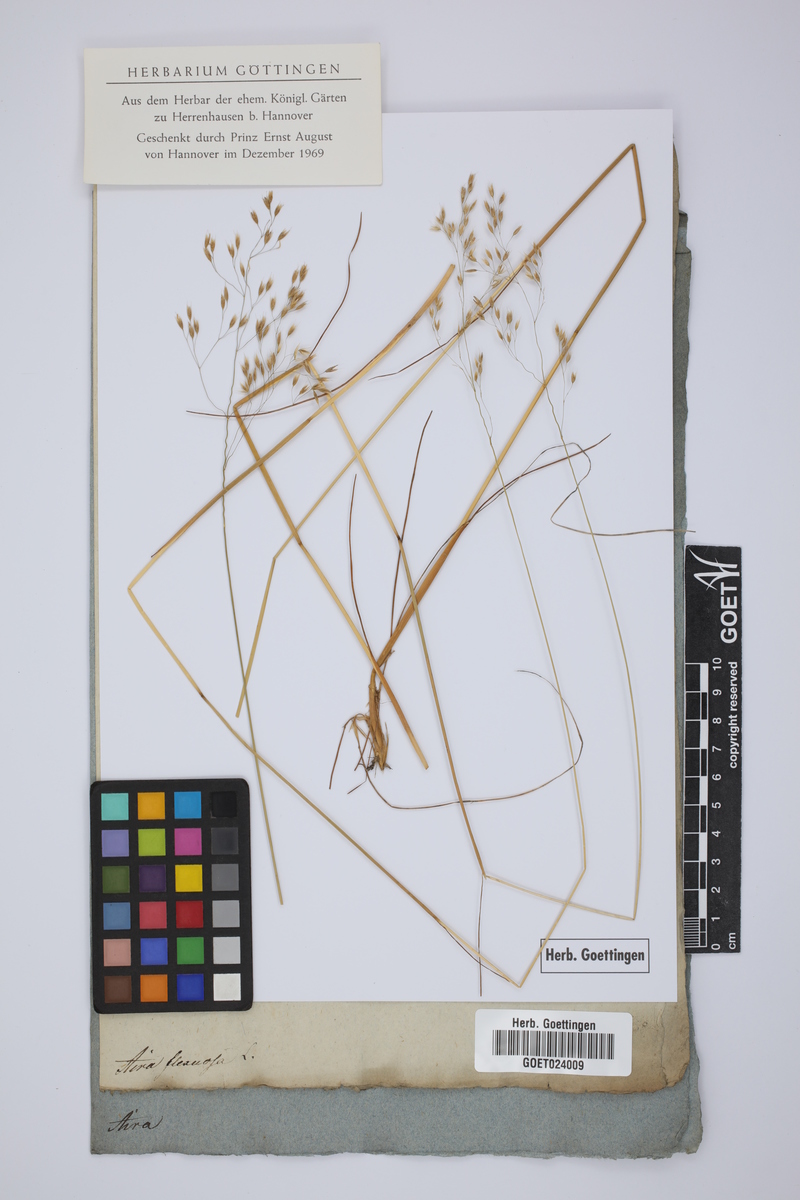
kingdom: Plantae
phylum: Tracheophyta
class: Liliopsida
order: Poales
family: Poaceae
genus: Avenella
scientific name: Avenella flexuosa
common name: Wavy hairgrass
